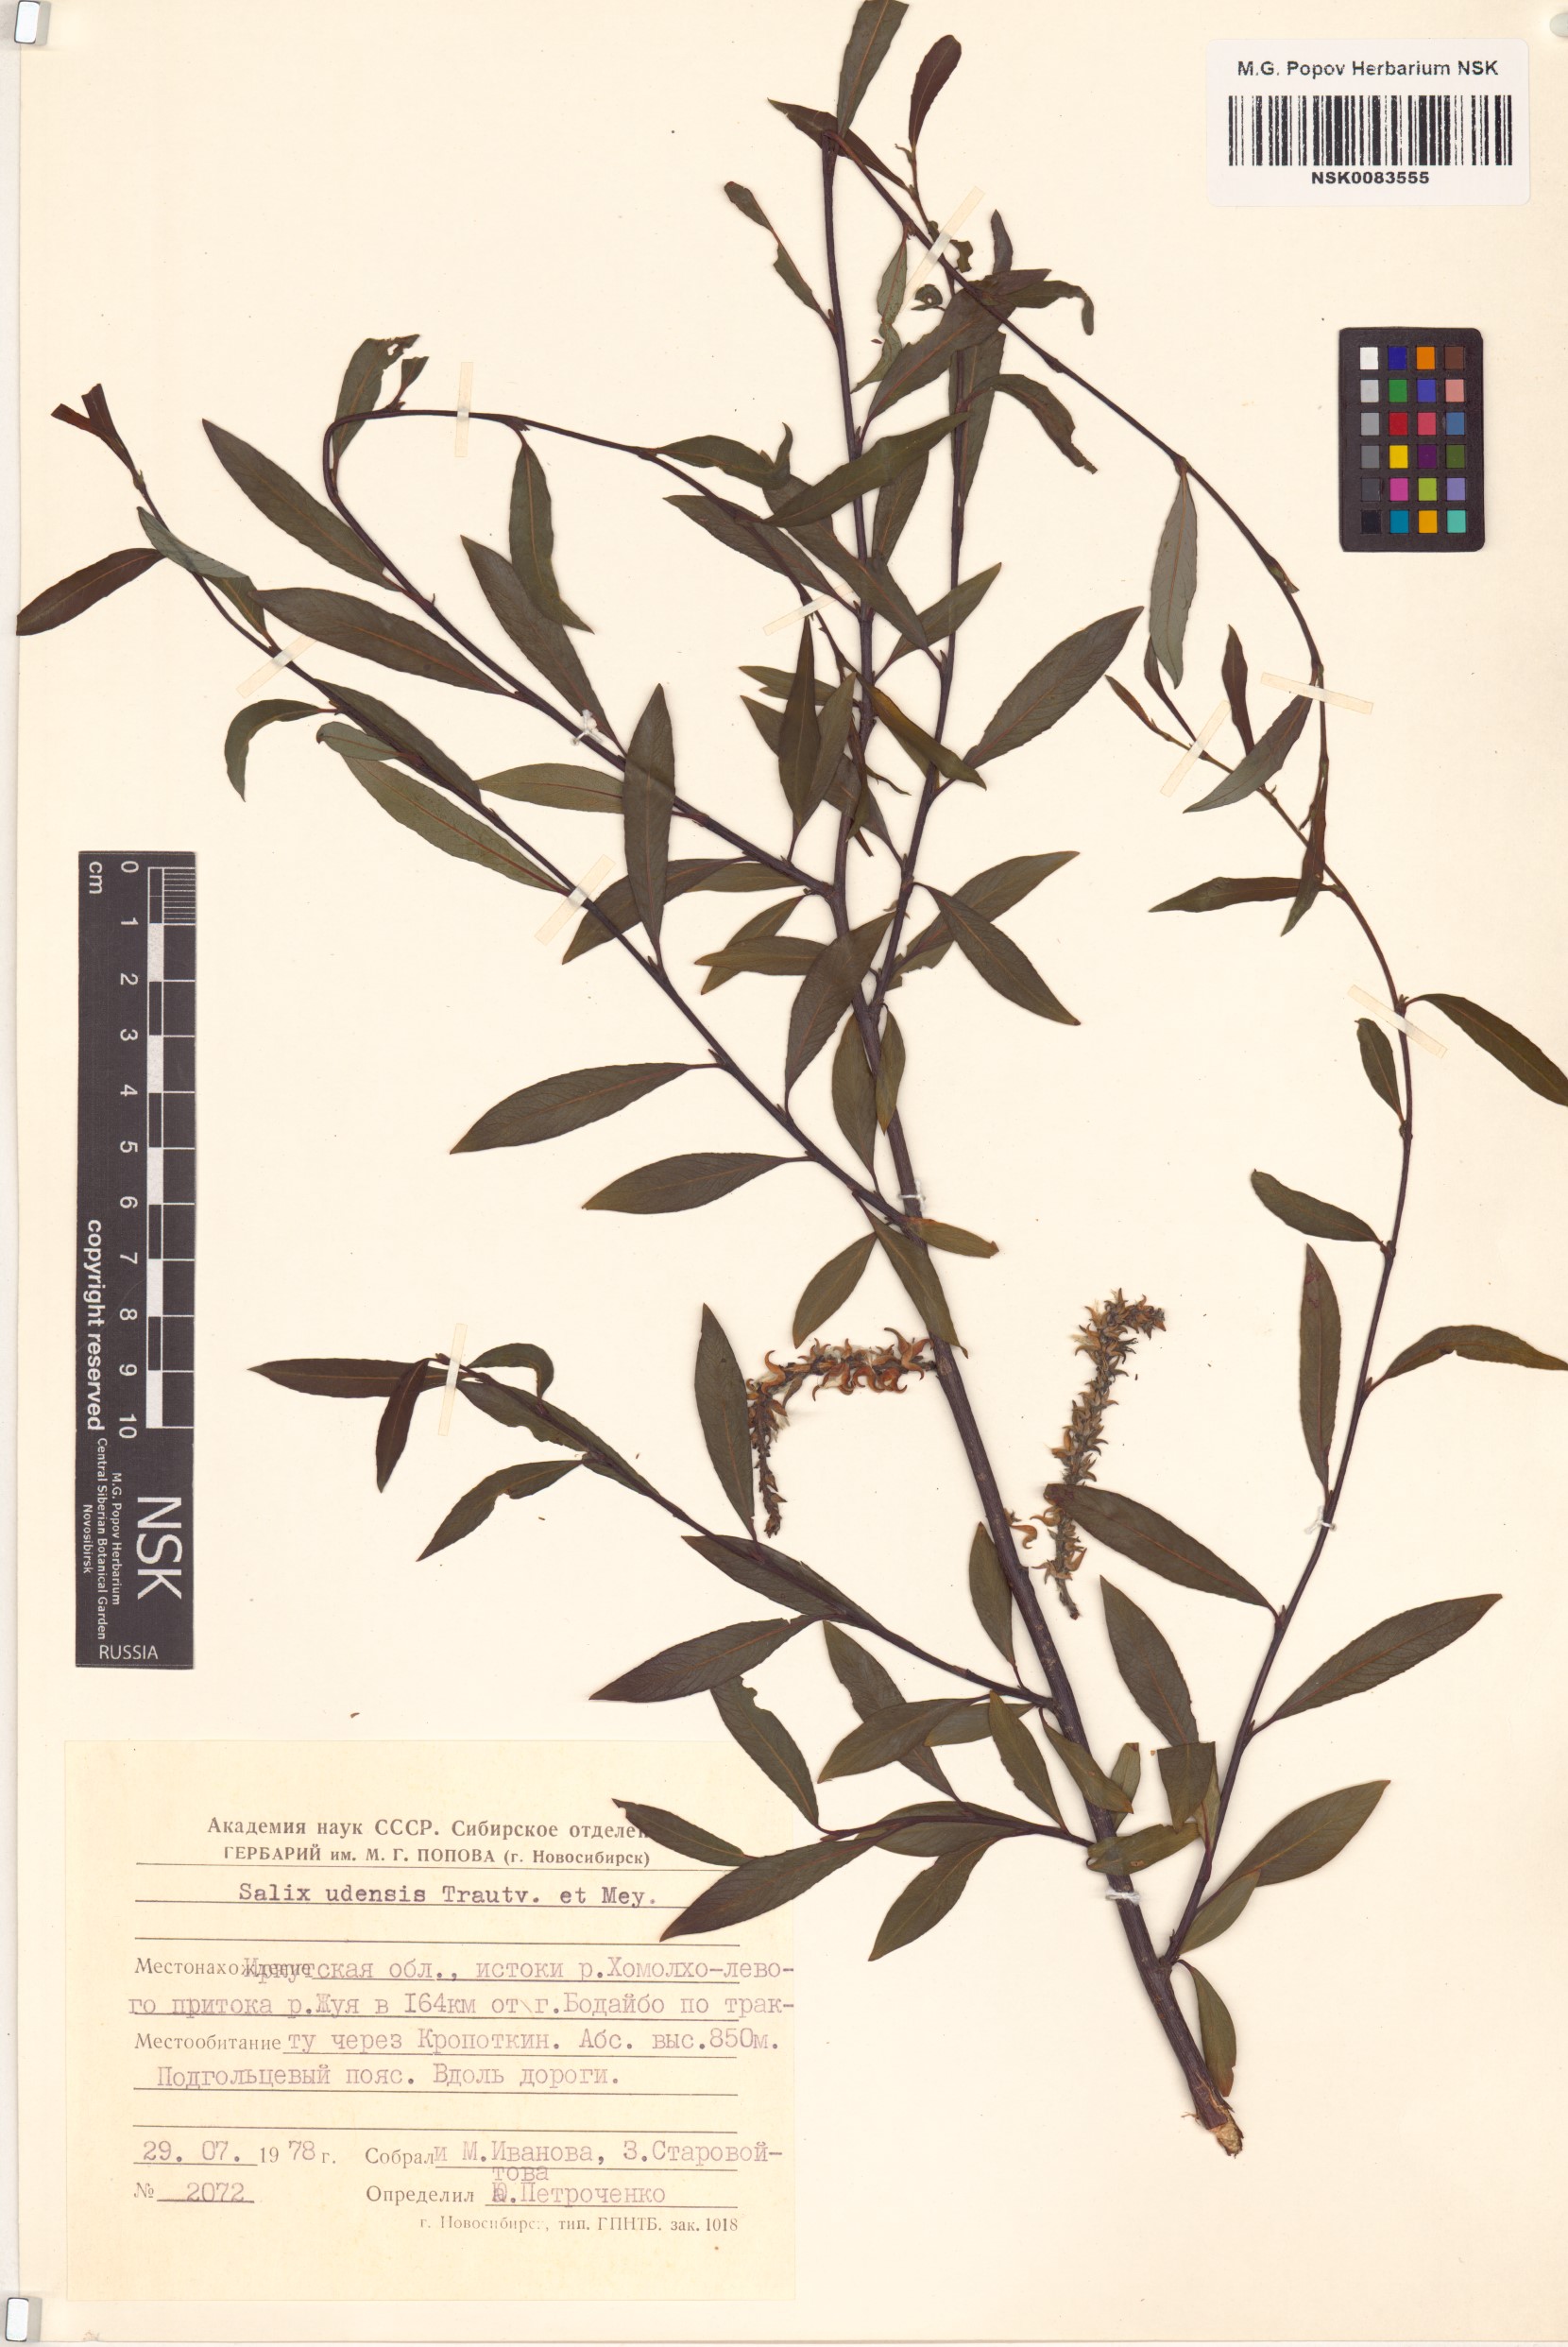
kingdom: Plantae
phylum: Tracheophyta
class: Magnoliopsida
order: Malpighiales
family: Salicaceae
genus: Salix
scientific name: Salix udensis
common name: Sachalin willow
